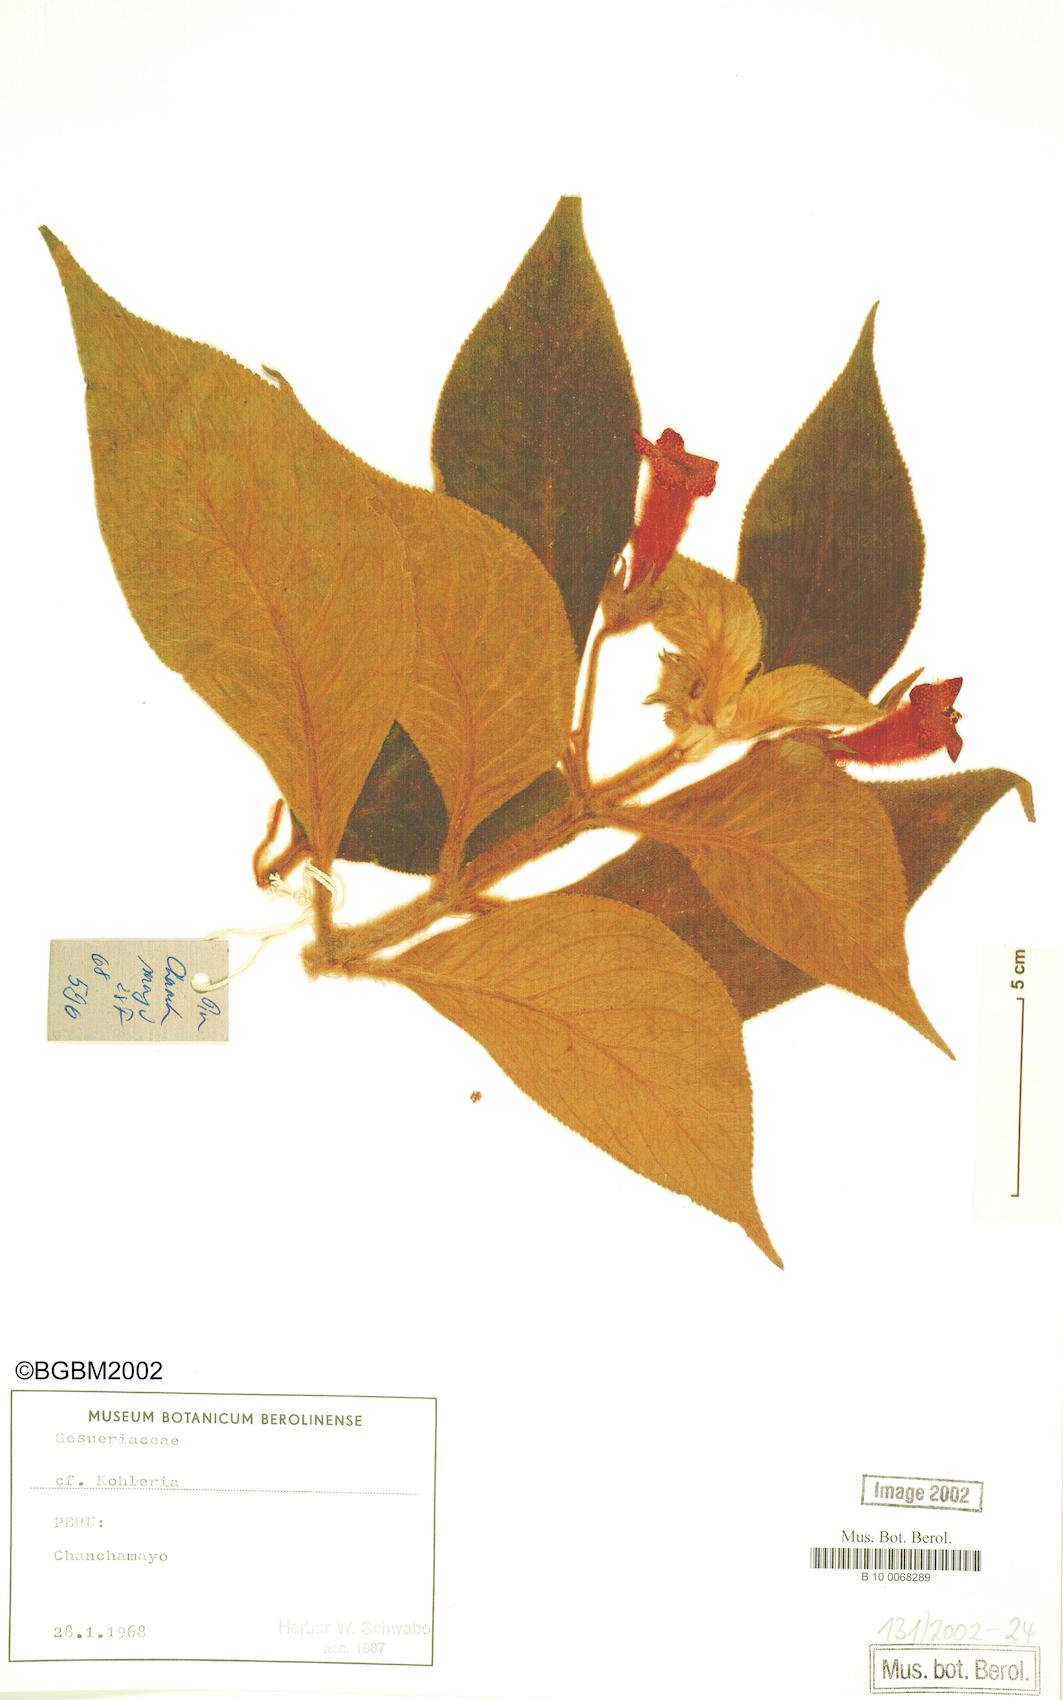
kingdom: Plantae
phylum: Tracheophyta
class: Magnoliopsida
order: Lamiales
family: Gesneriaceae
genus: Kohleria
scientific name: Kohleria
